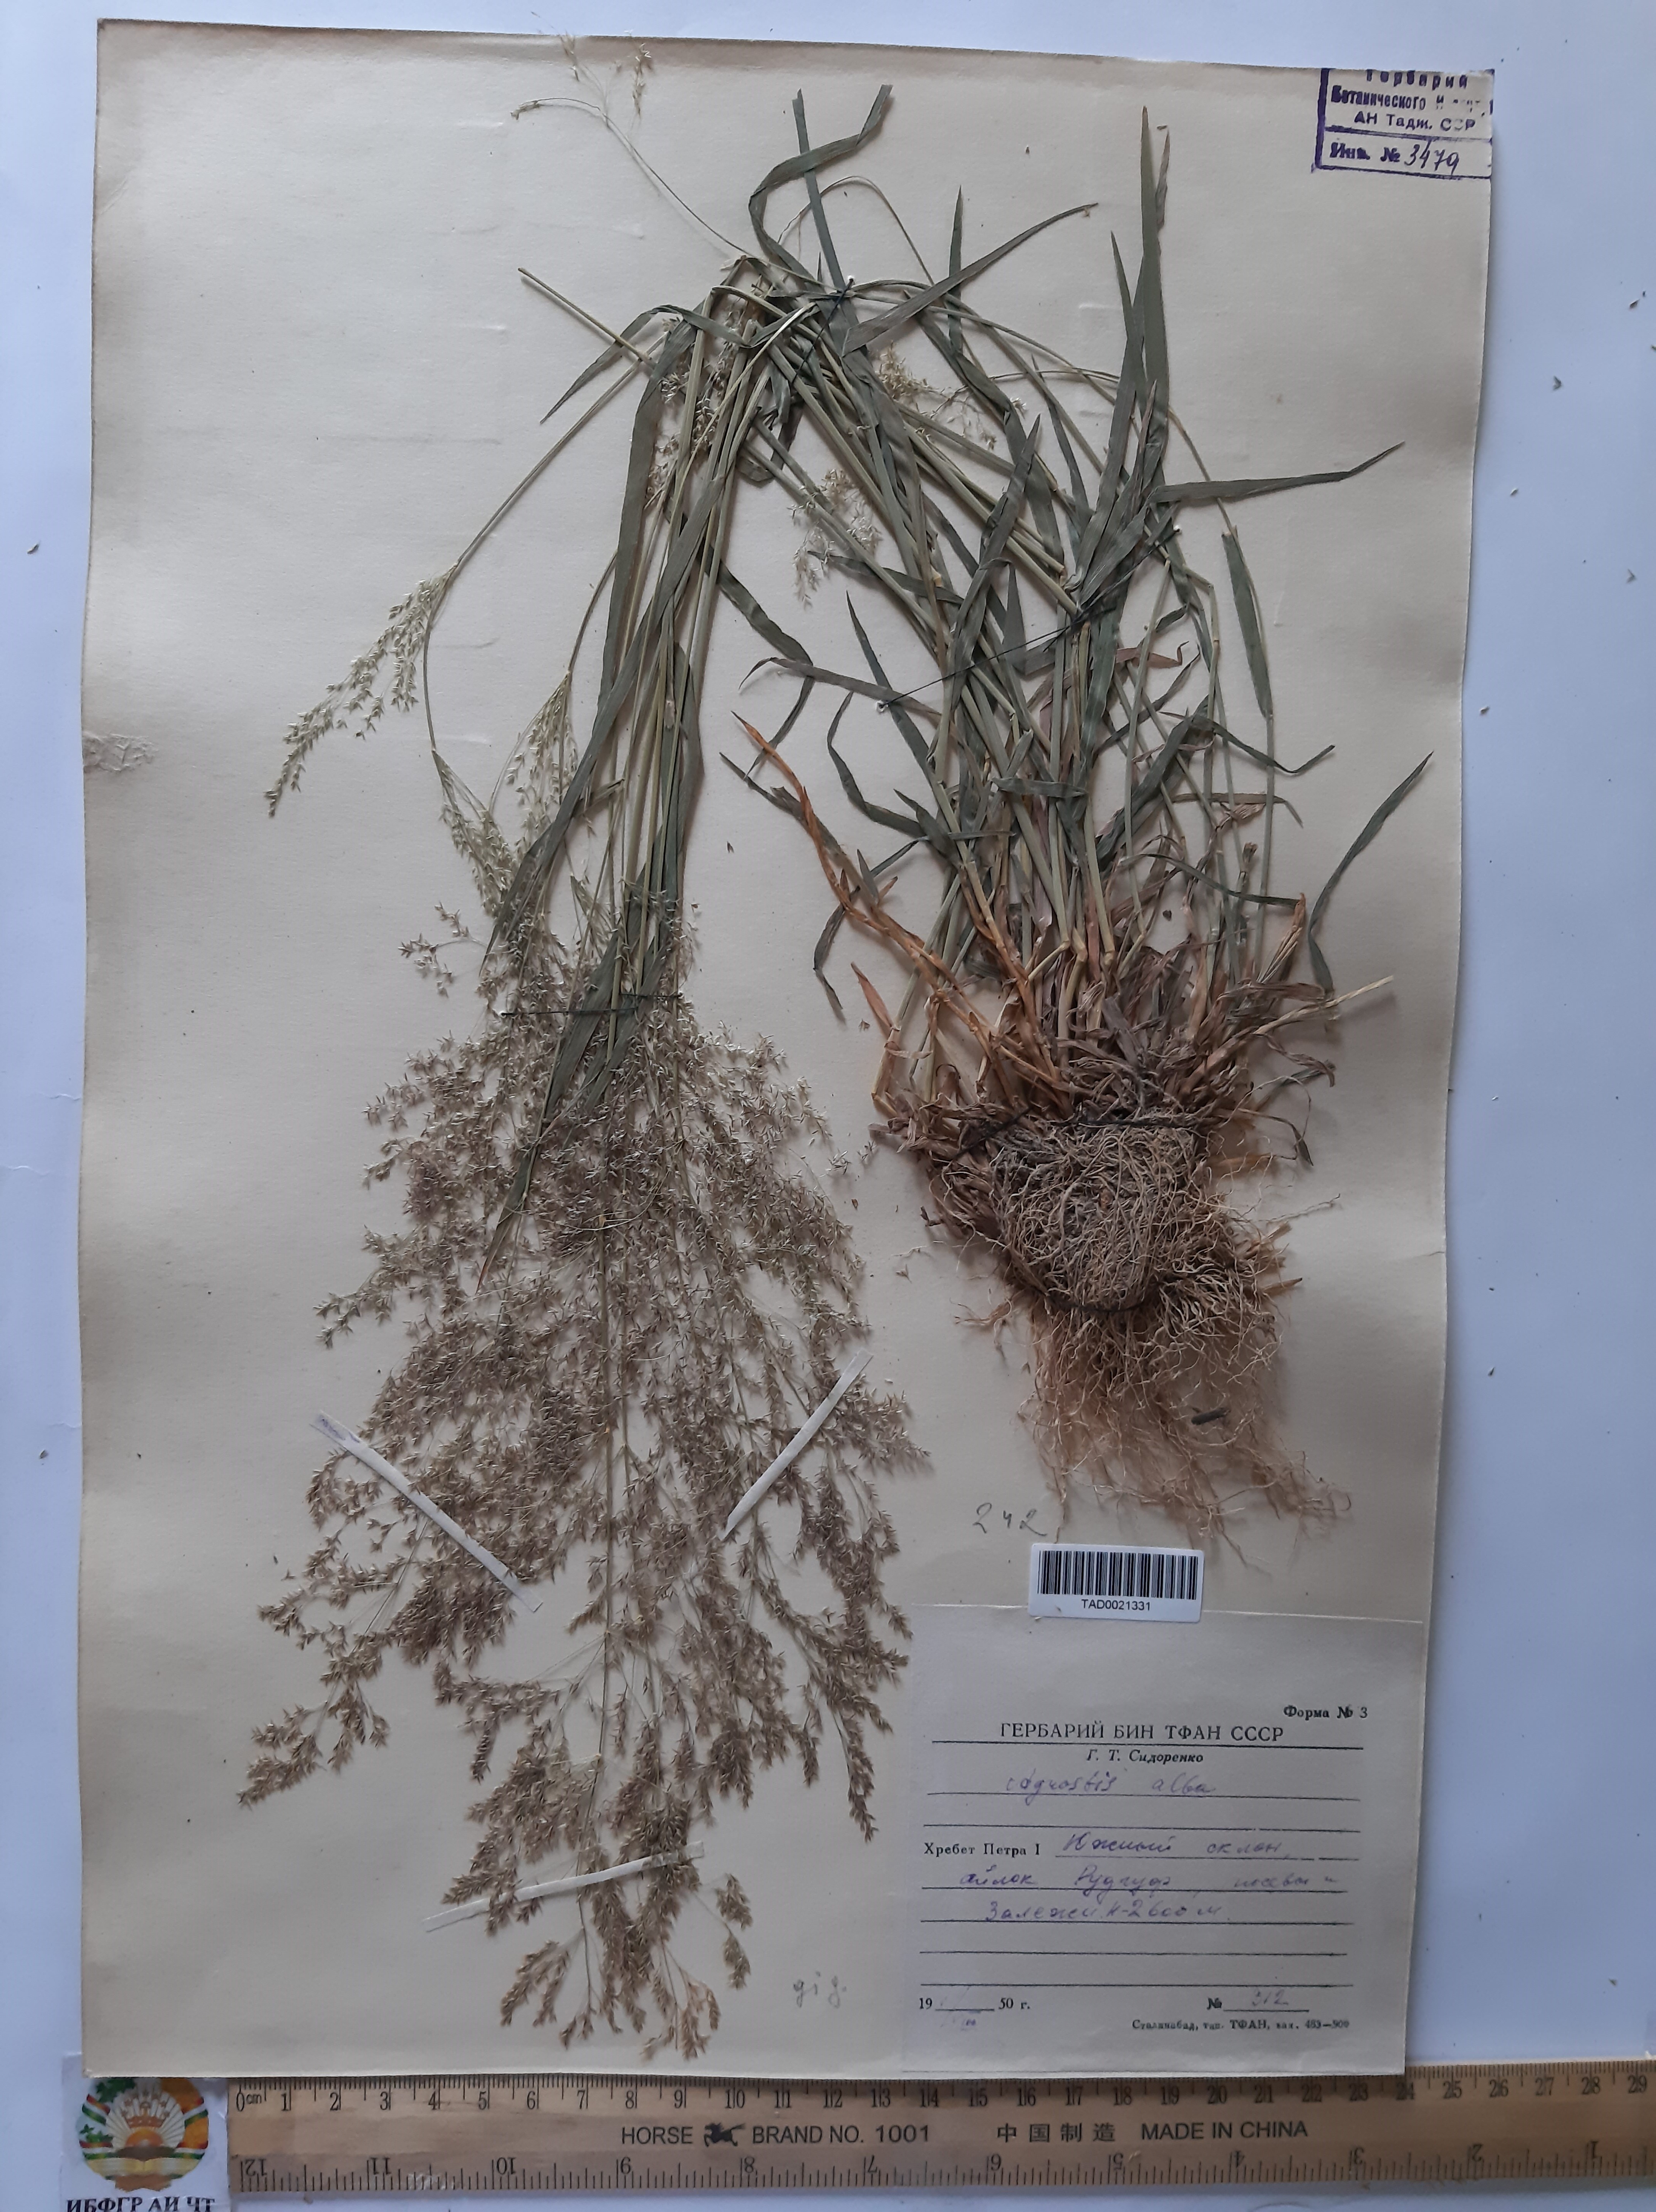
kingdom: Plantae
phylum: Tracheophyta
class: Liliopsida
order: Poales
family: Poaceae
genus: Poa
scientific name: Poa nemoralis
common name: Wood bluegrass
